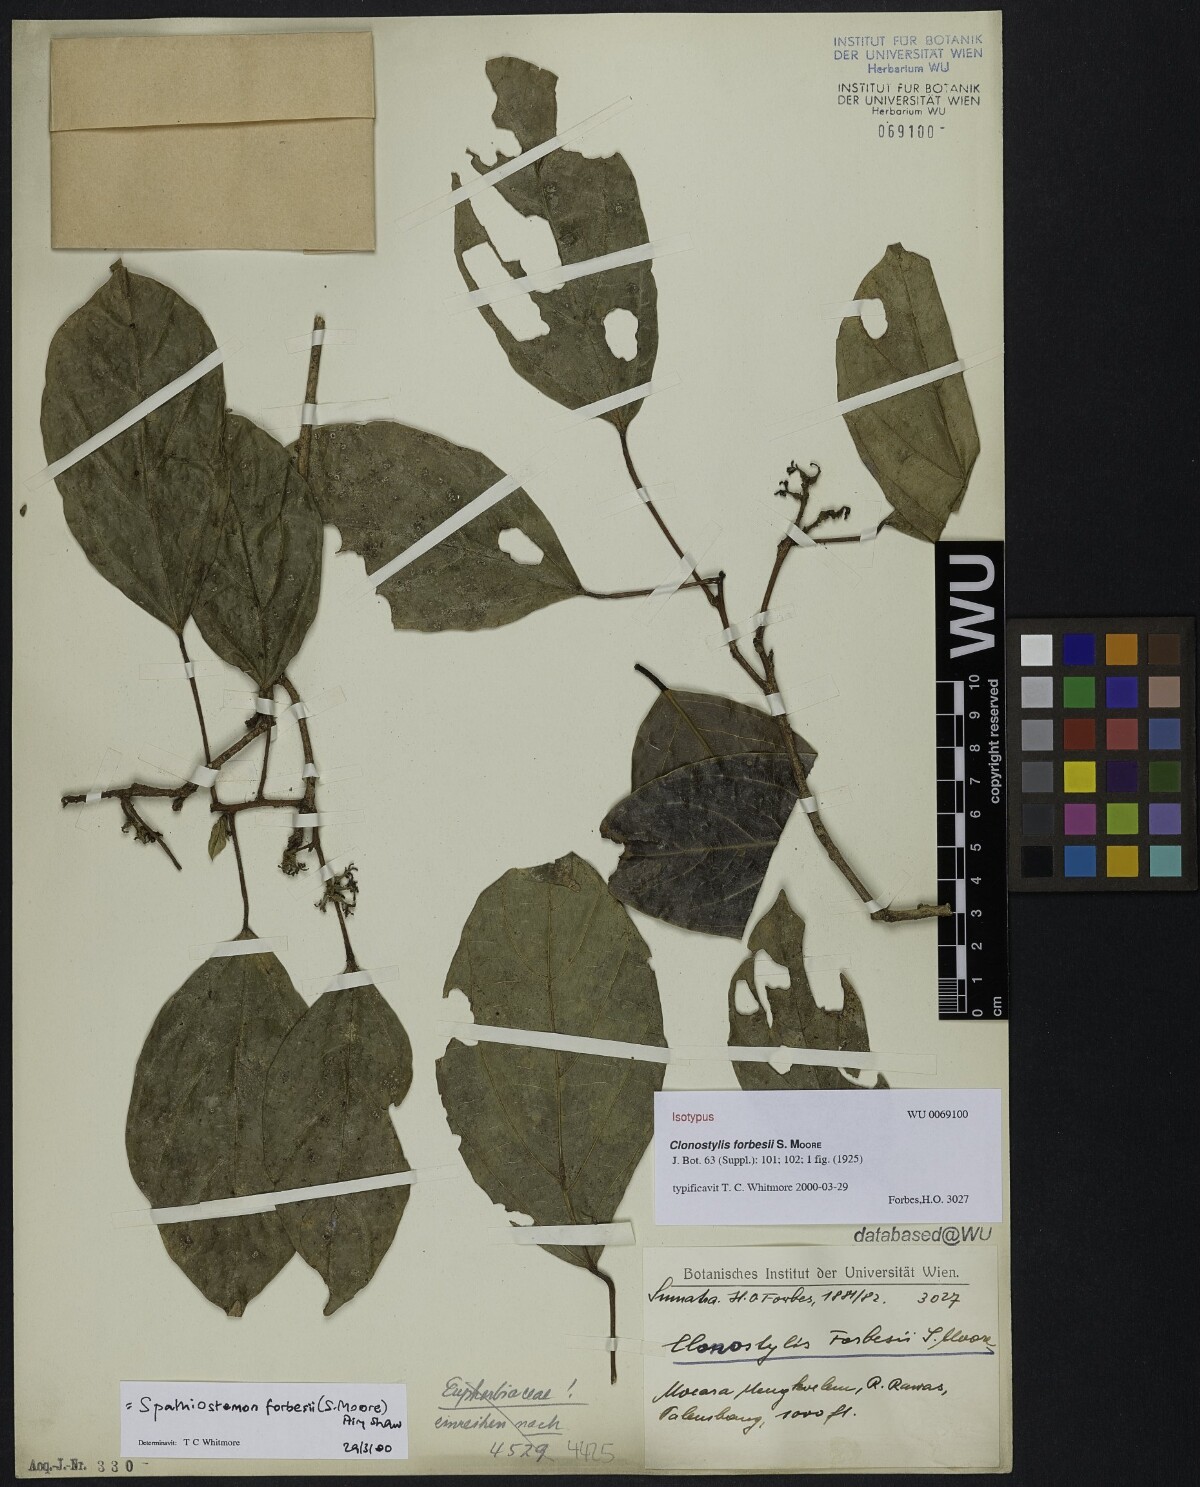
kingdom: Plantae
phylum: Tracheophyta
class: Magnoliopsida
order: Malpighiales
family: Euphorbiaceae
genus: Clonostylis
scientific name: Clonostylis forbesii
